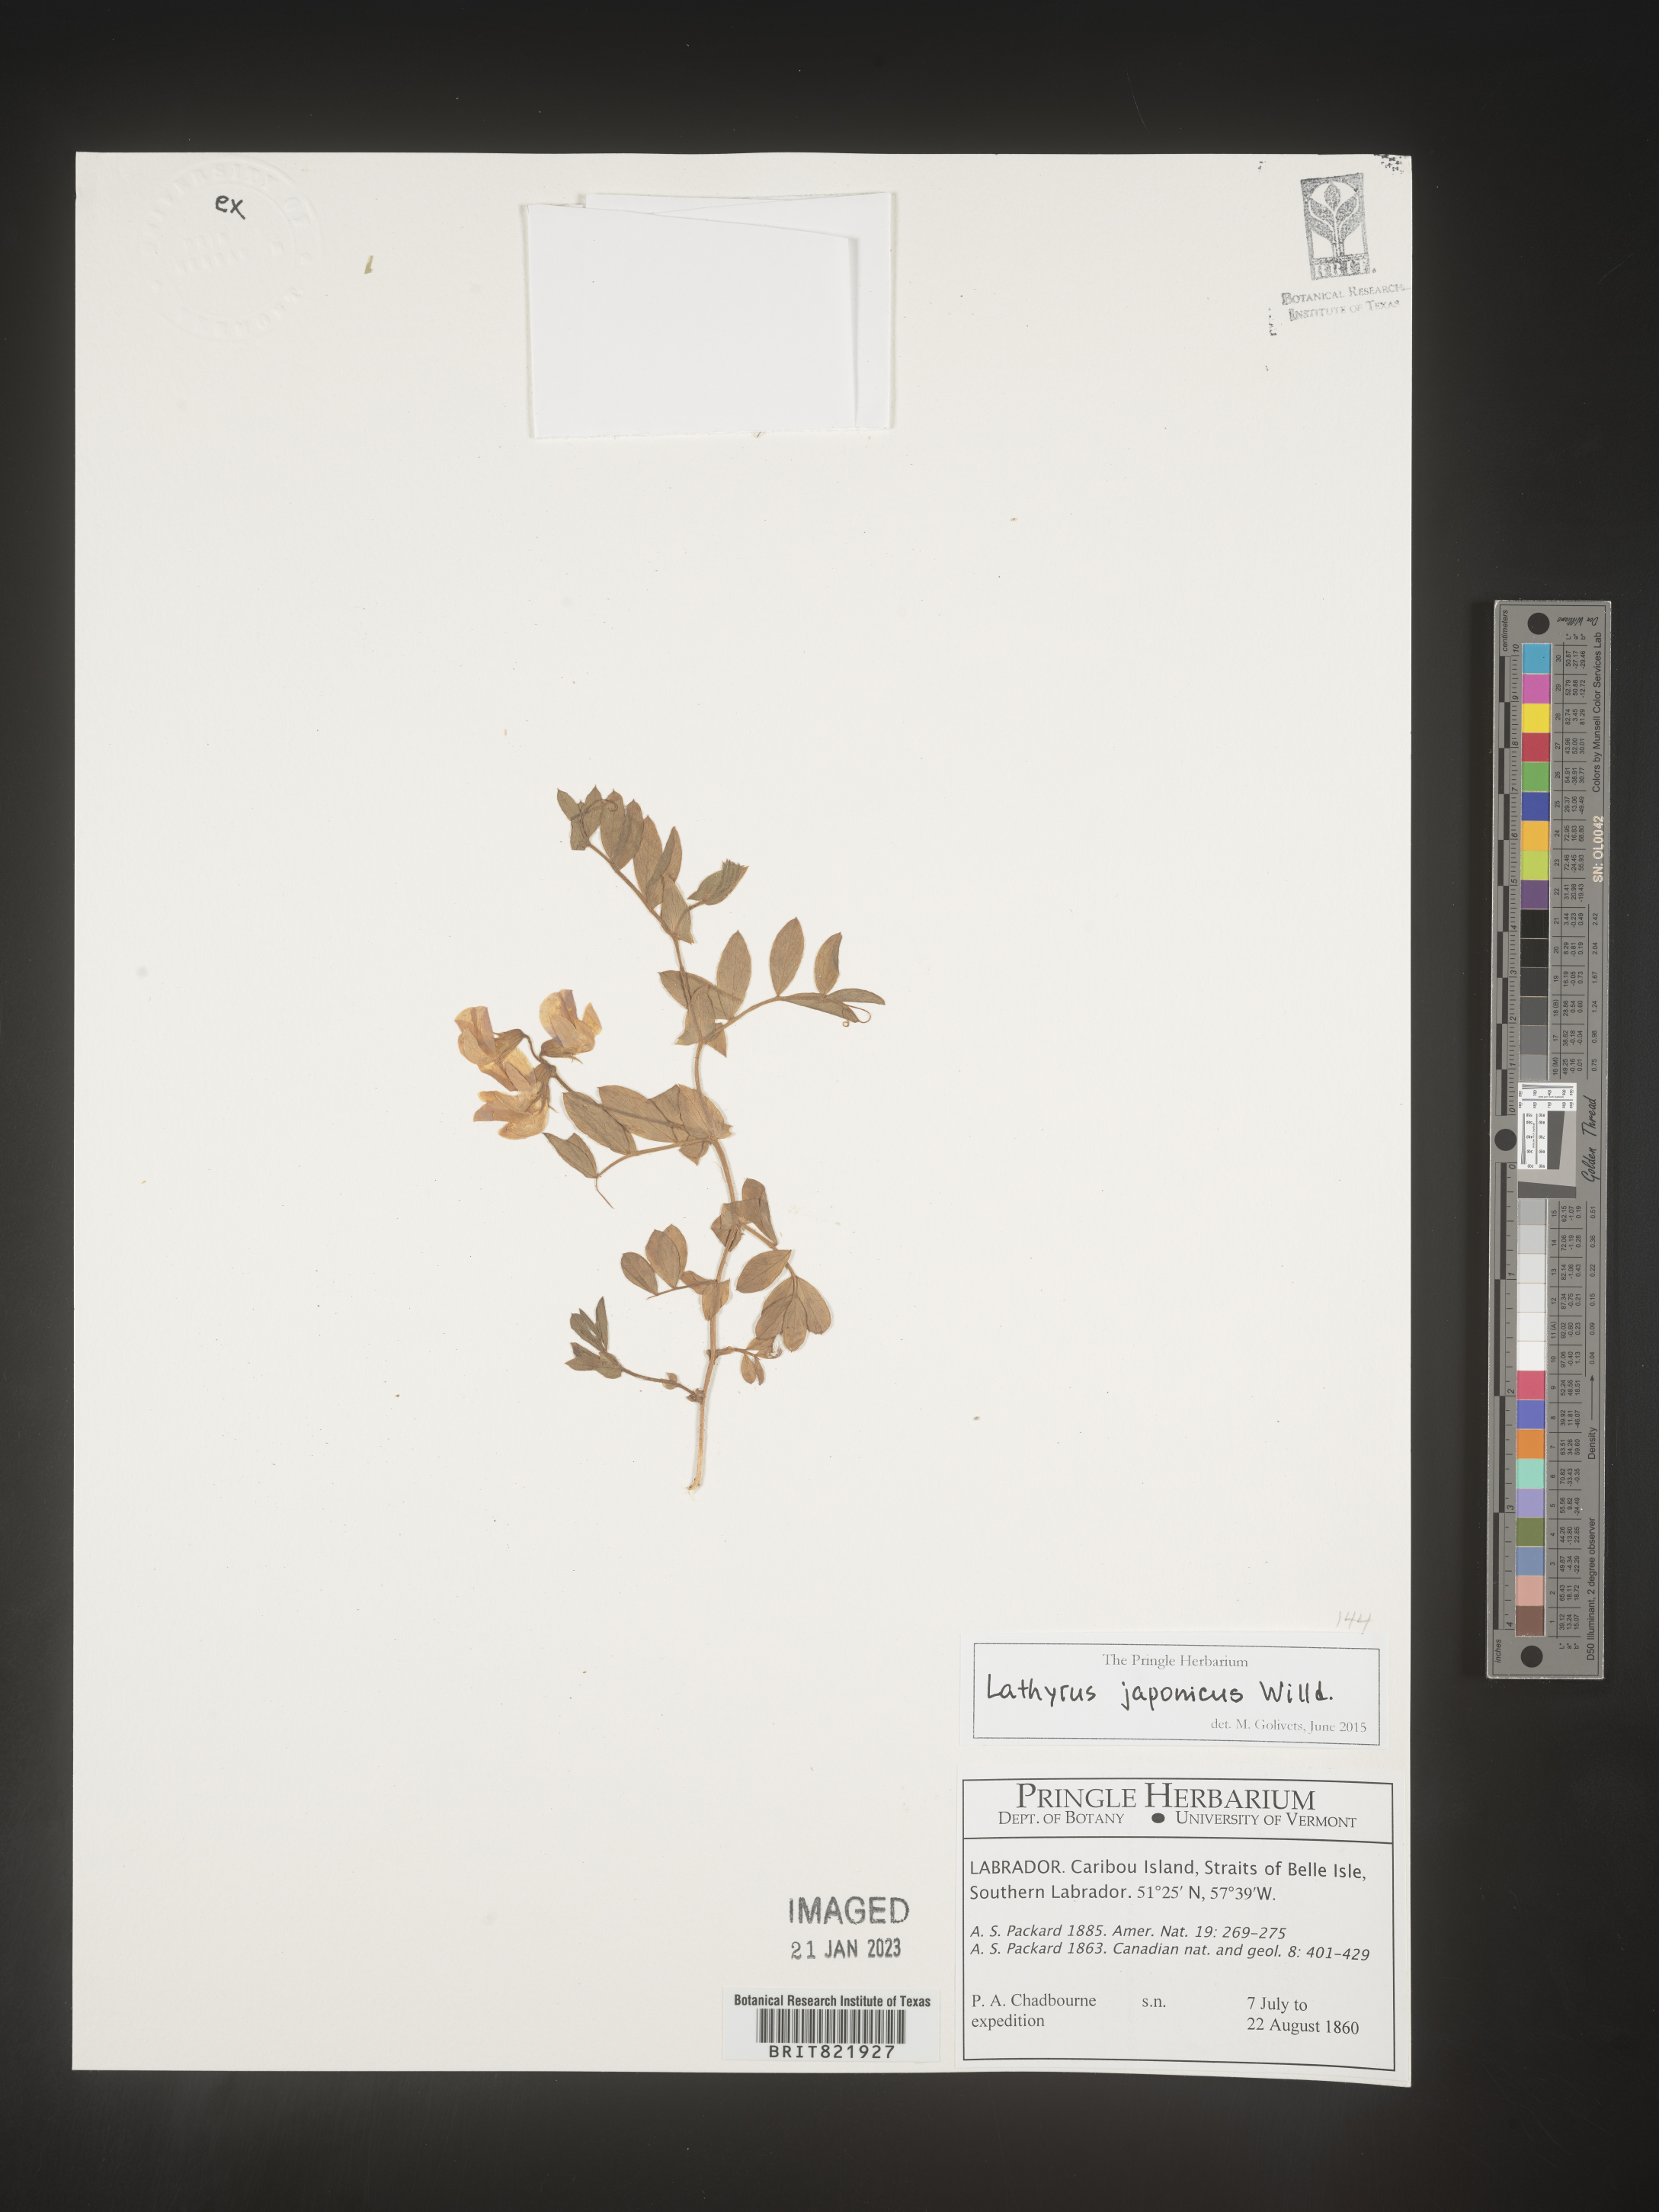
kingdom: Plantae
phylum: Tracheophyta
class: Magnoliopsida
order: Fabales
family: Fabaceae
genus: Lathyrus
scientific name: Lathyrus
